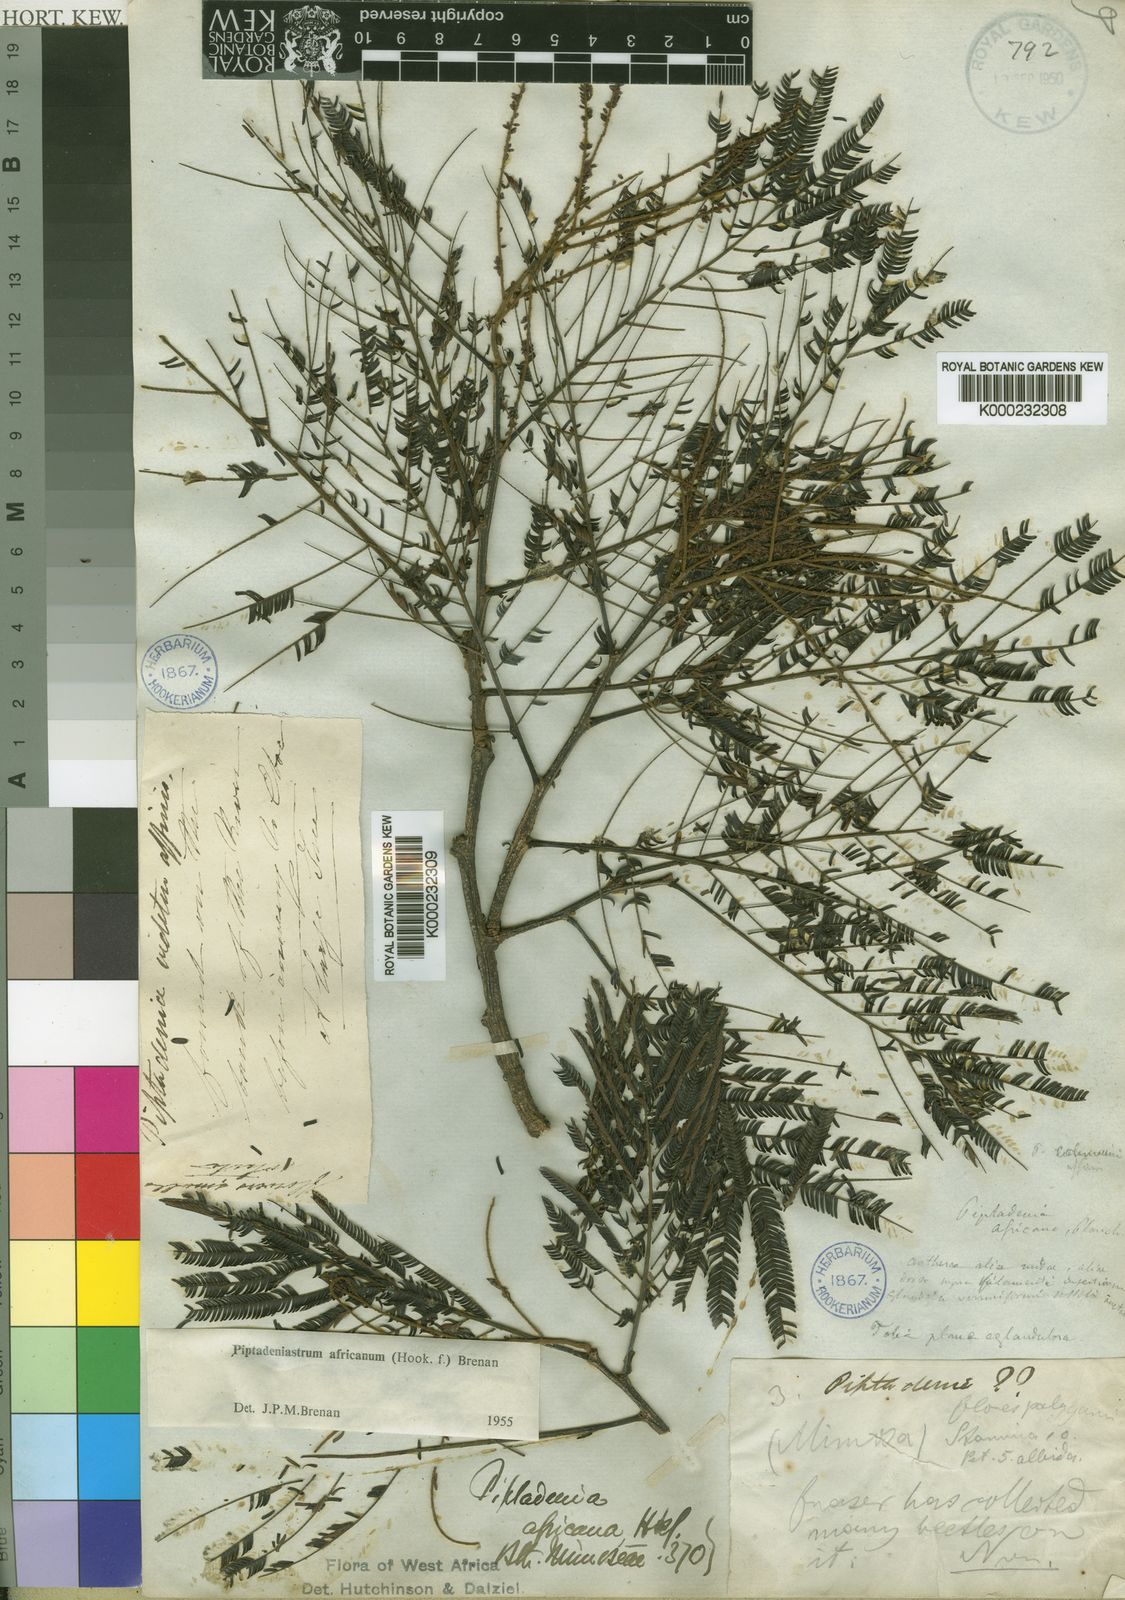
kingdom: Plantae
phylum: Tracheophyta
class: Magnoliopsida
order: Fabales
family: Fabaceae
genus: Piptadeniastrum
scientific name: Piptadeniastrum africanum
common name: African greenheart
